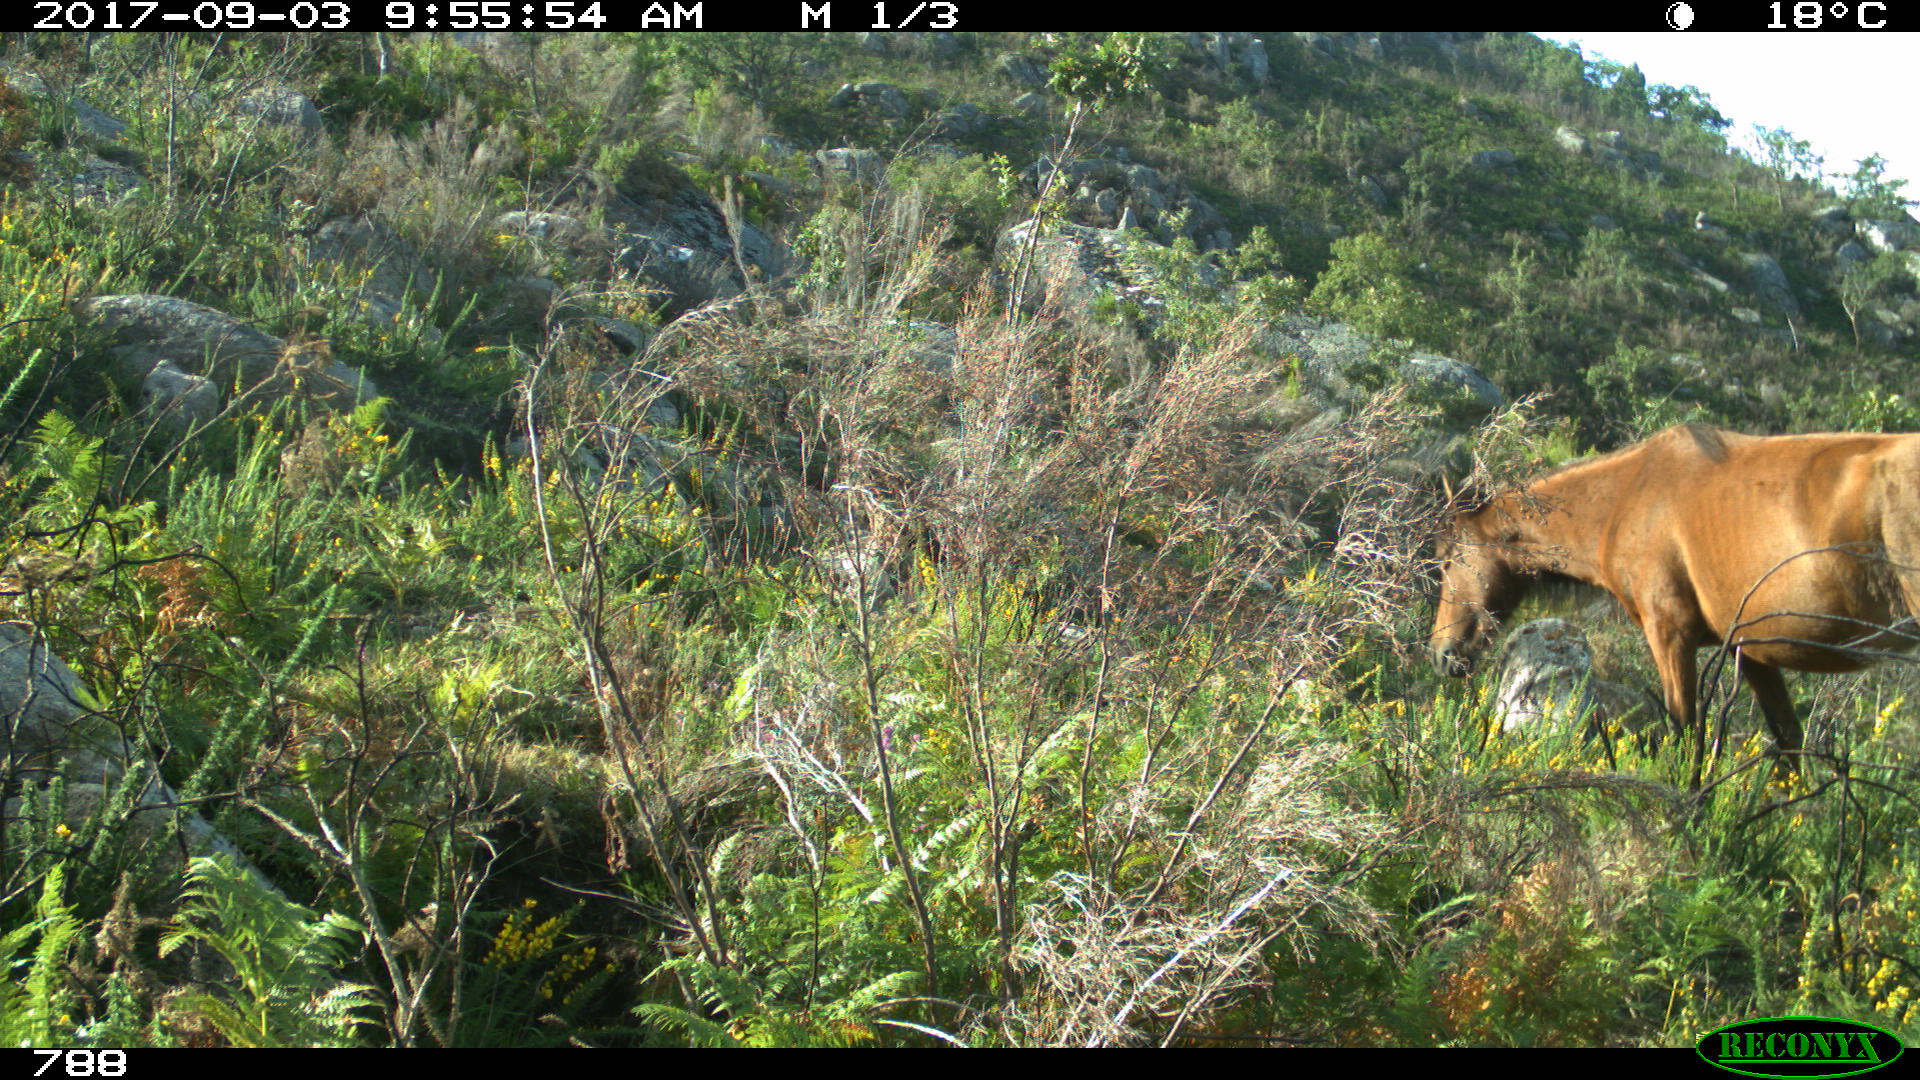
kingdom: Animalia
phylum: Chordata
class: Mammalia
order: Perissodactyla
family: Equidae
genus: Equus
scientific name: Equus caballus
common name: Horse
